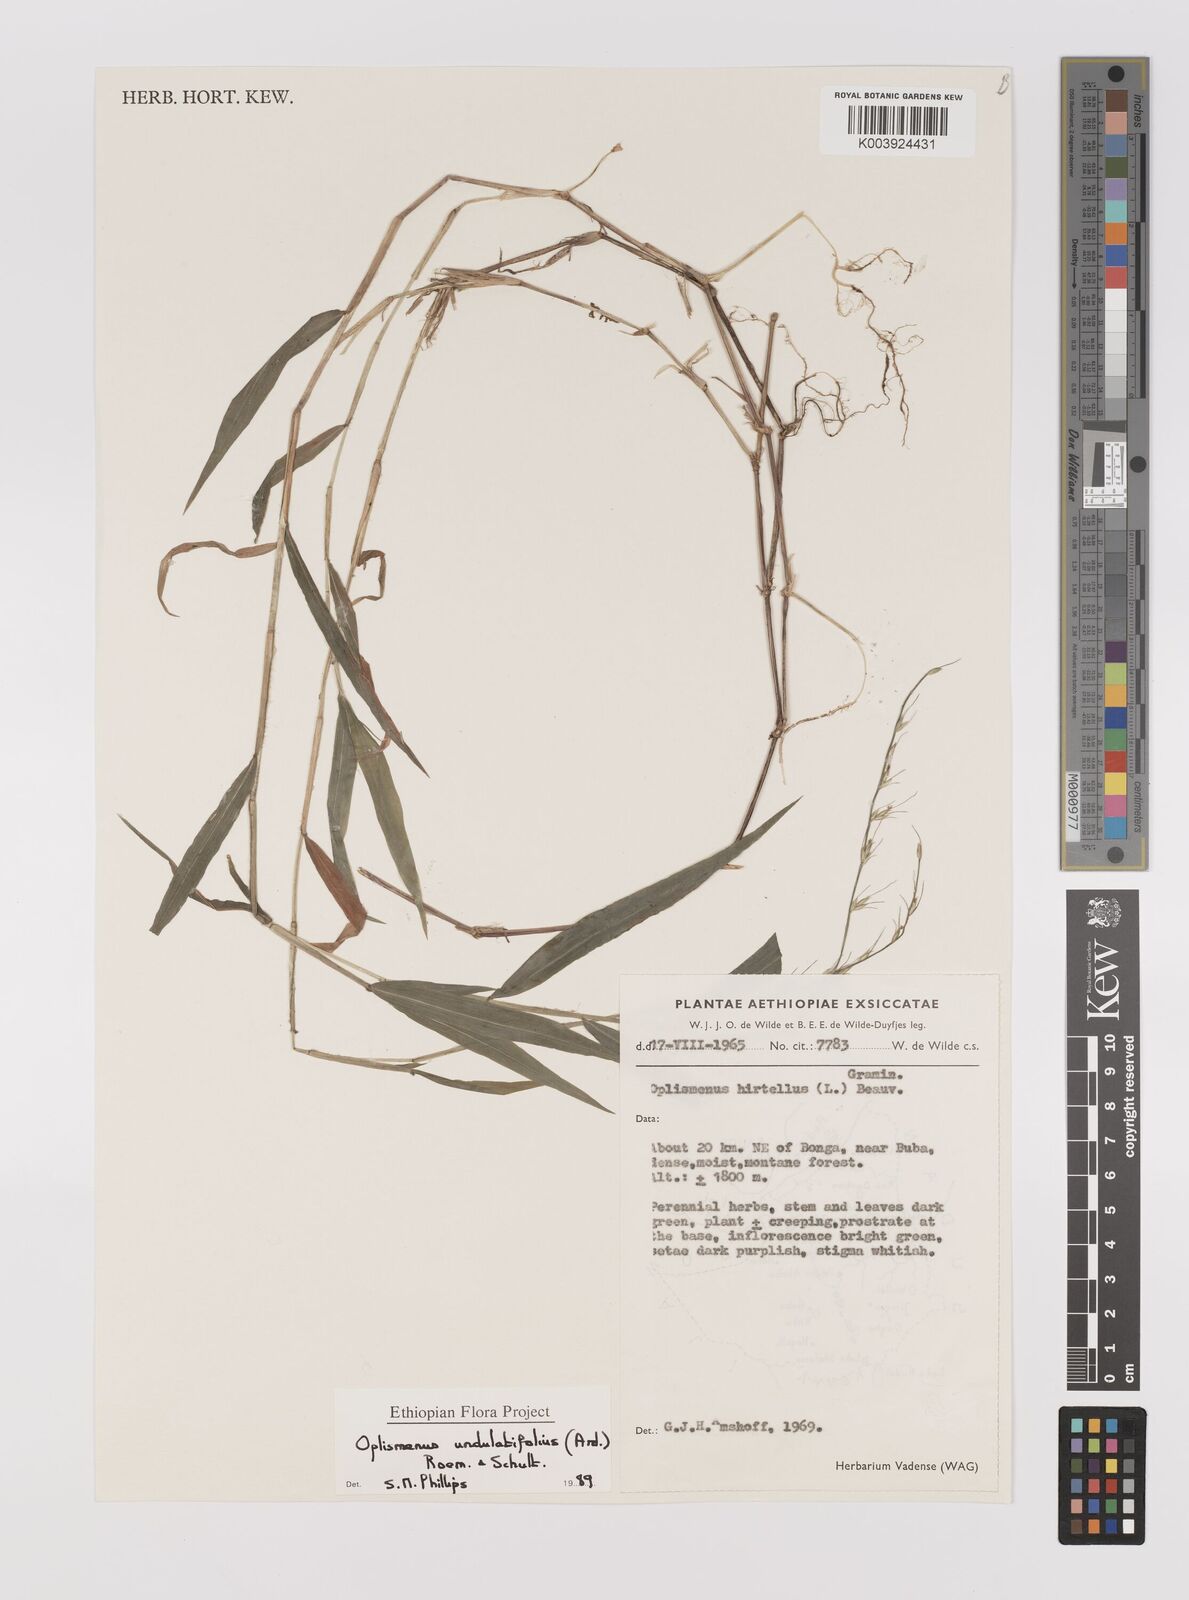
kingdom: Plantae
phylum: Tracheophyta
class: Liliopsida
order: Poales
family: Poaceae
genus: Oplismenus
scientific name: Oplismenus undulatifolius
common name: Wavyleaf basketgrass
